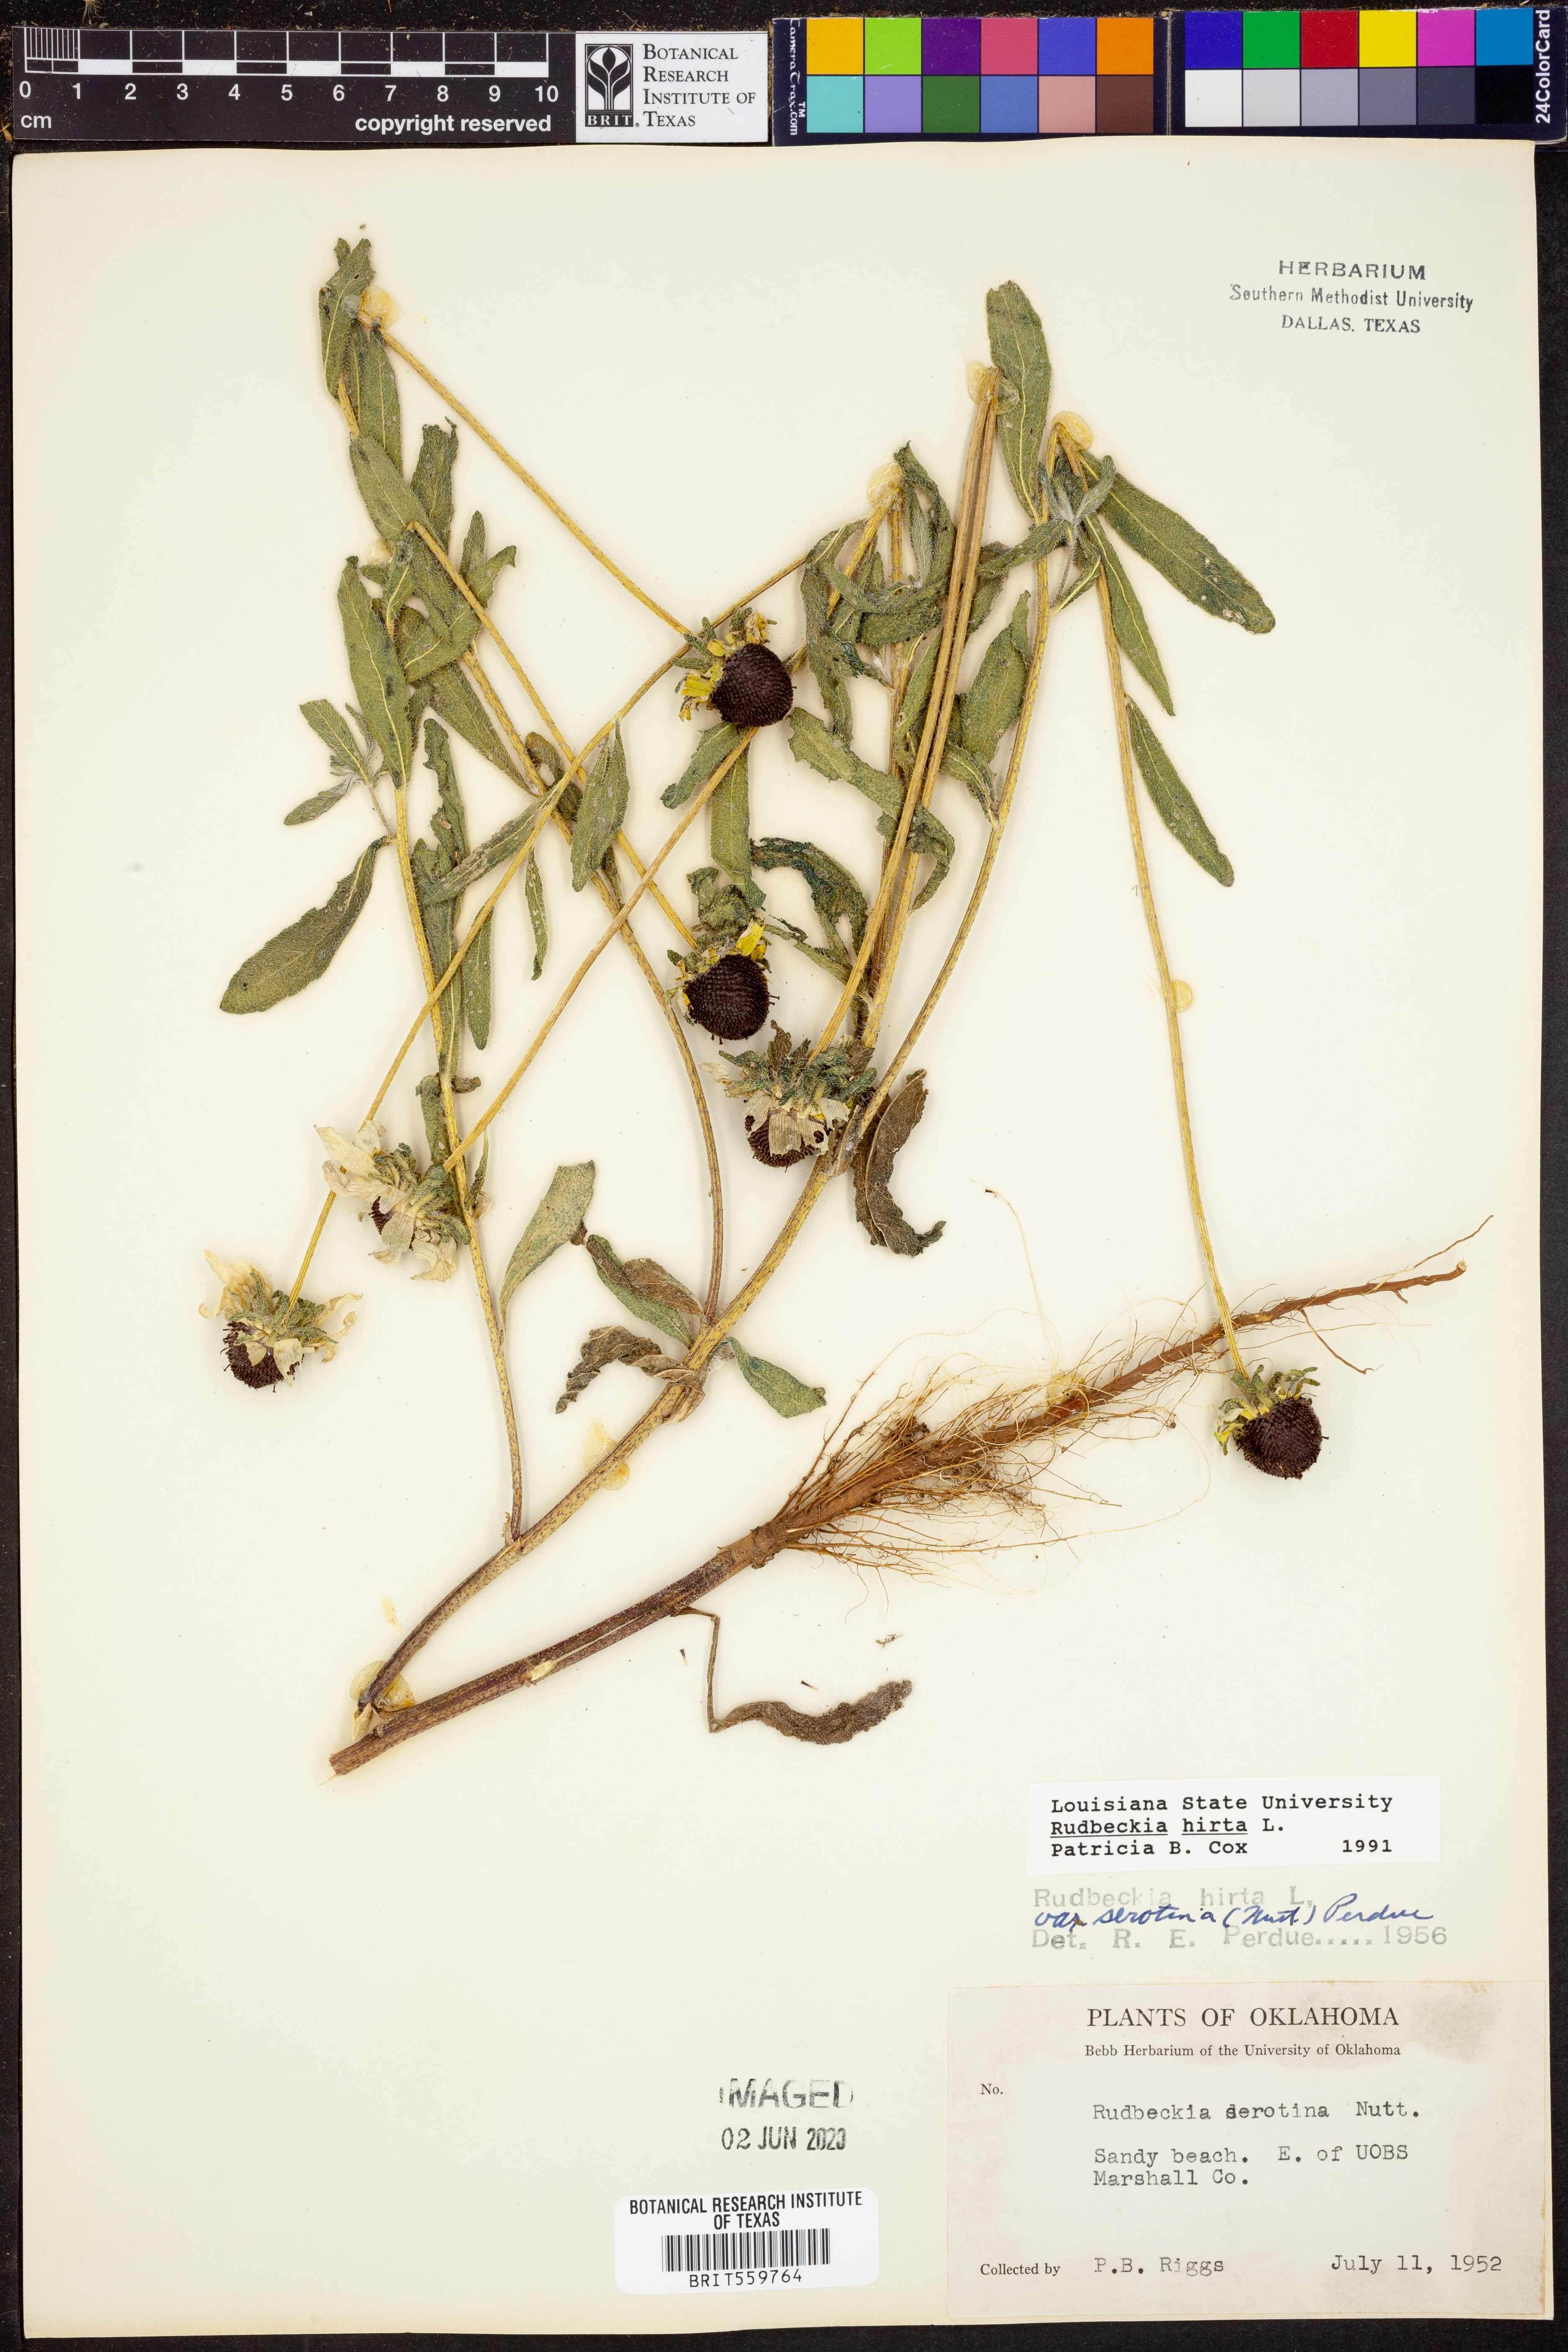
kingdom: Plantae
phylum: Tracheophyta
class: Magnoliopsida
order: Asterales
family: Asteraceae
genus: Rudbeckia
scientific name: Rudbeckia hirta
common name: Black-eyed-susan
